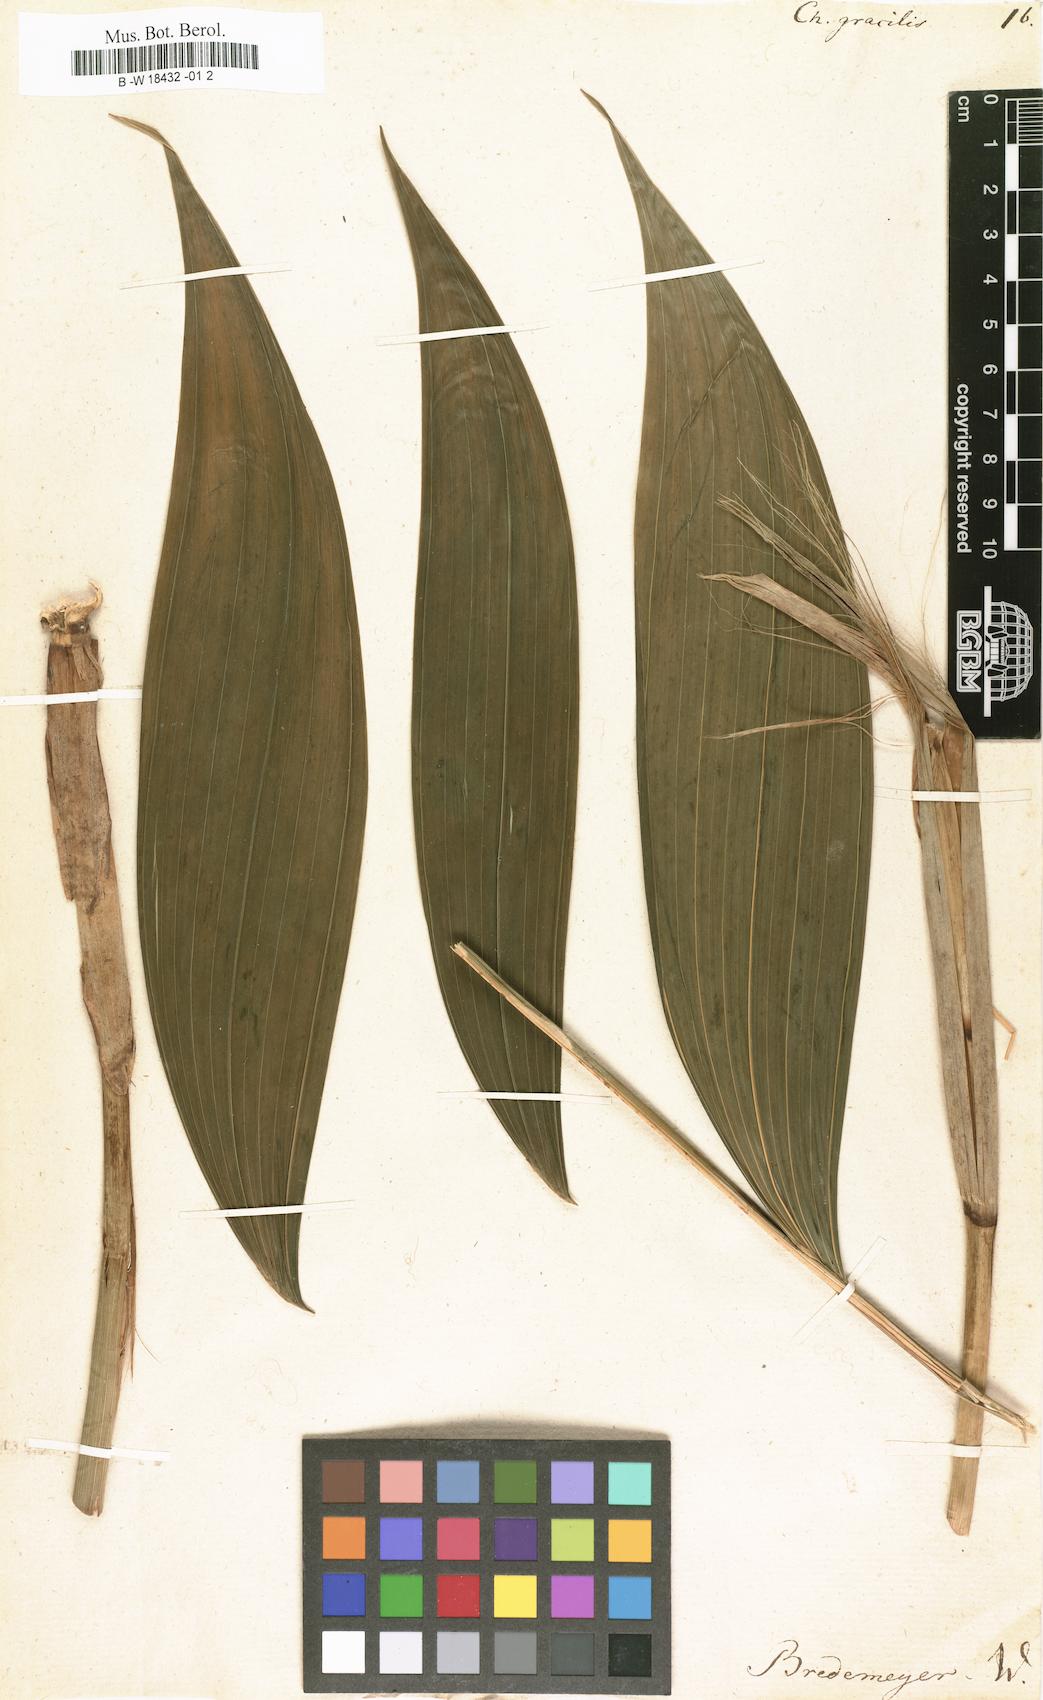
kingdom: Plantae
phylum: Tracheophyta
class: Liliopsida
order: Arecales
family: Arecaceae
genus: Chamaedorea
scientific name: Chamaedorea pinnatifrons
